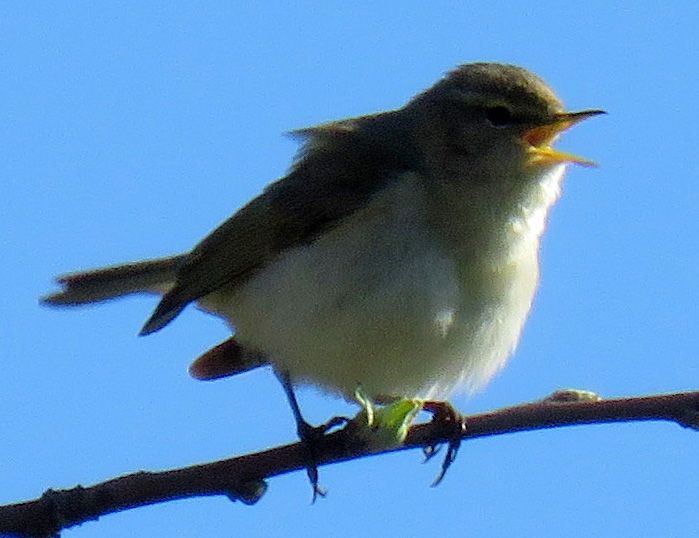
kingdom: Animalia
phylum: Chordata
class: Aves
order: Passeriformes
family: Phylloscopidae
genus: Phylloscopus
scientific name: Phylloscopus collybita
